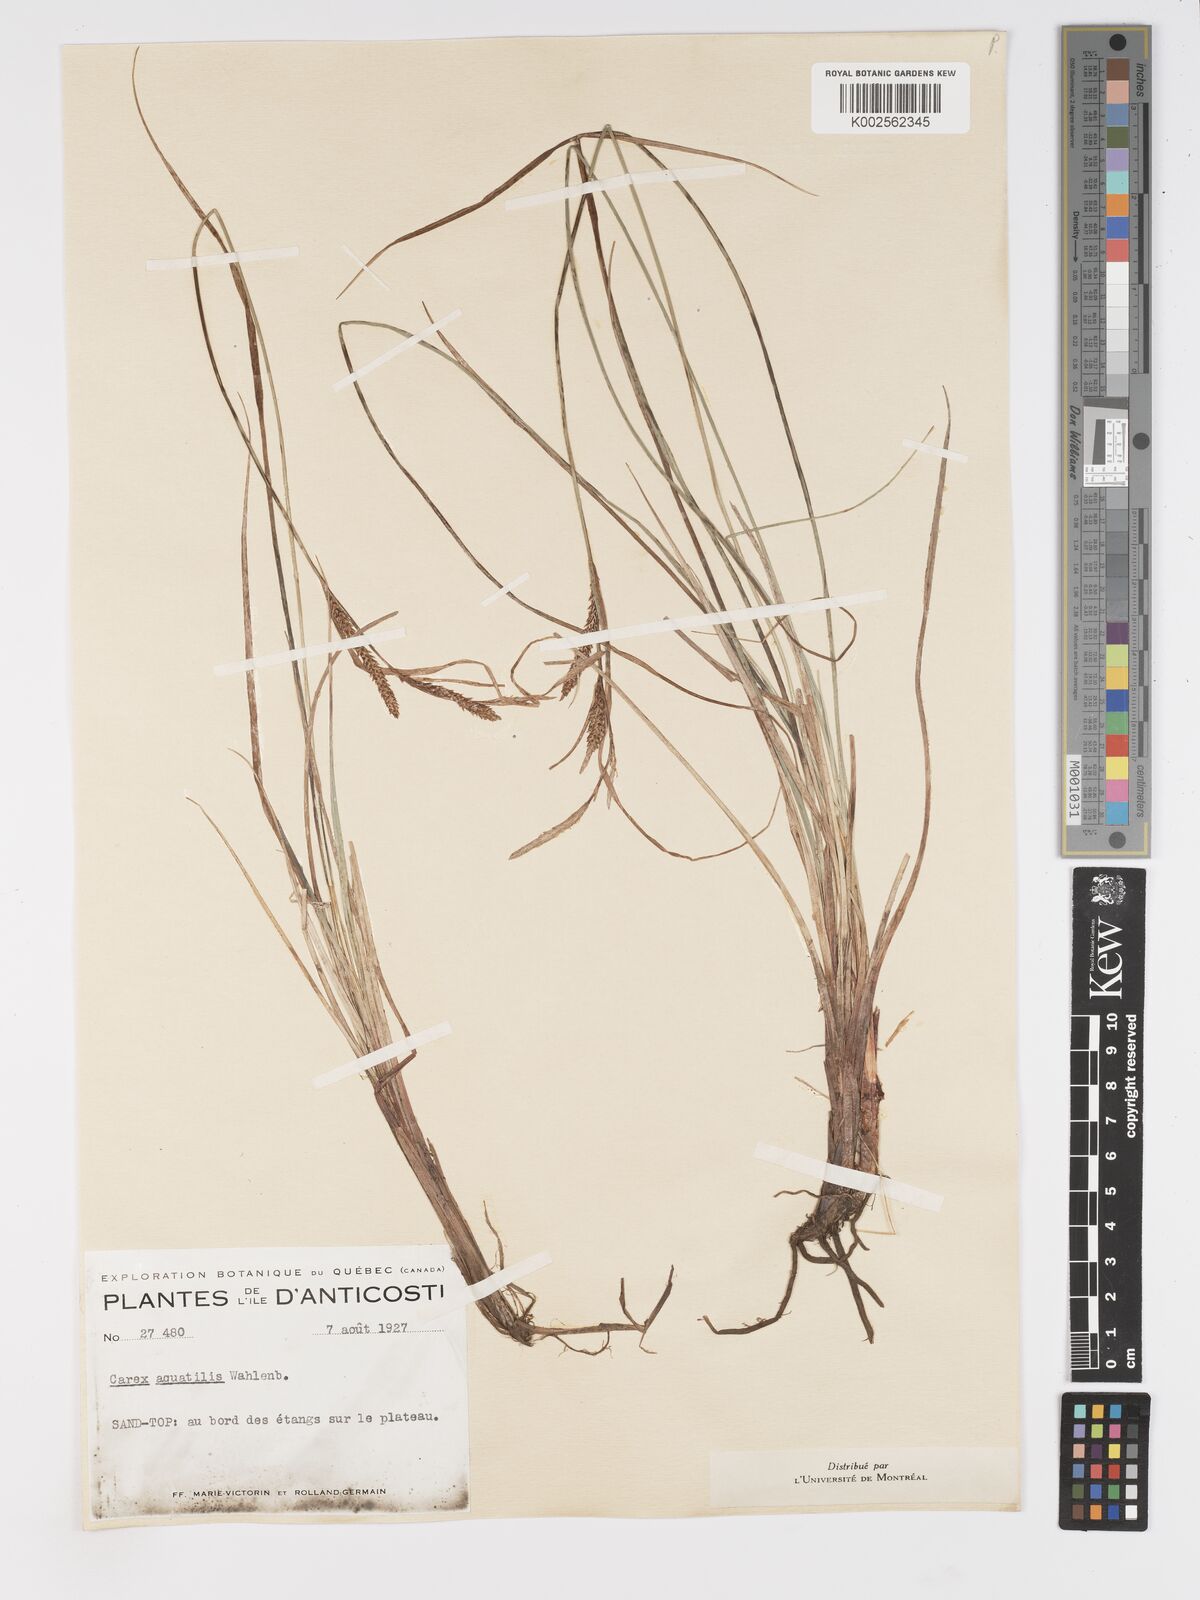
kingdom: Plantae
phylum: Tracheophyta
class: Liliopsida
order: Poales
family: Cyperaceae
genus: Carex
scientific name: Carex aquatilis
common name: Water sedge
